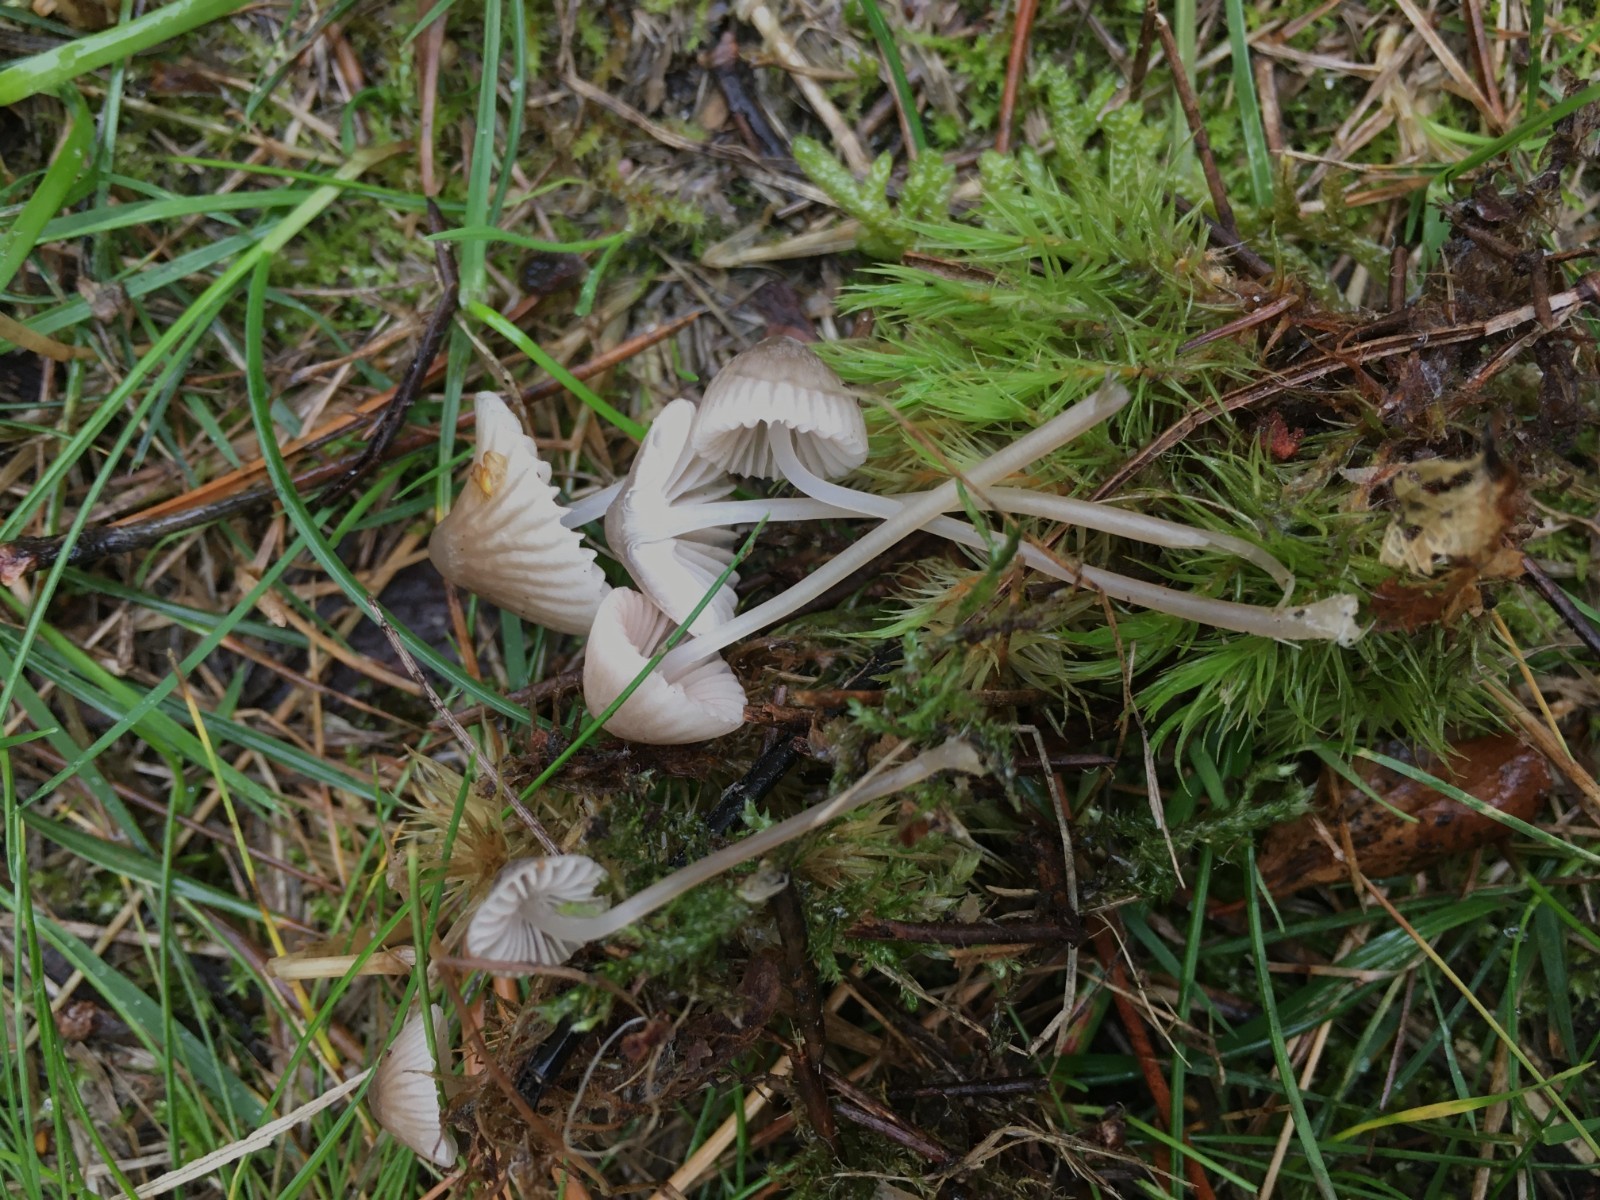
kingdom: Fungi
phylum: Basidiomycota
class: Agaricomycetes
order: Agaricales
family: Mycenaceae
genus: Mycena
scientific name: Mycena leptocephala
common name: klor-huesvamp
